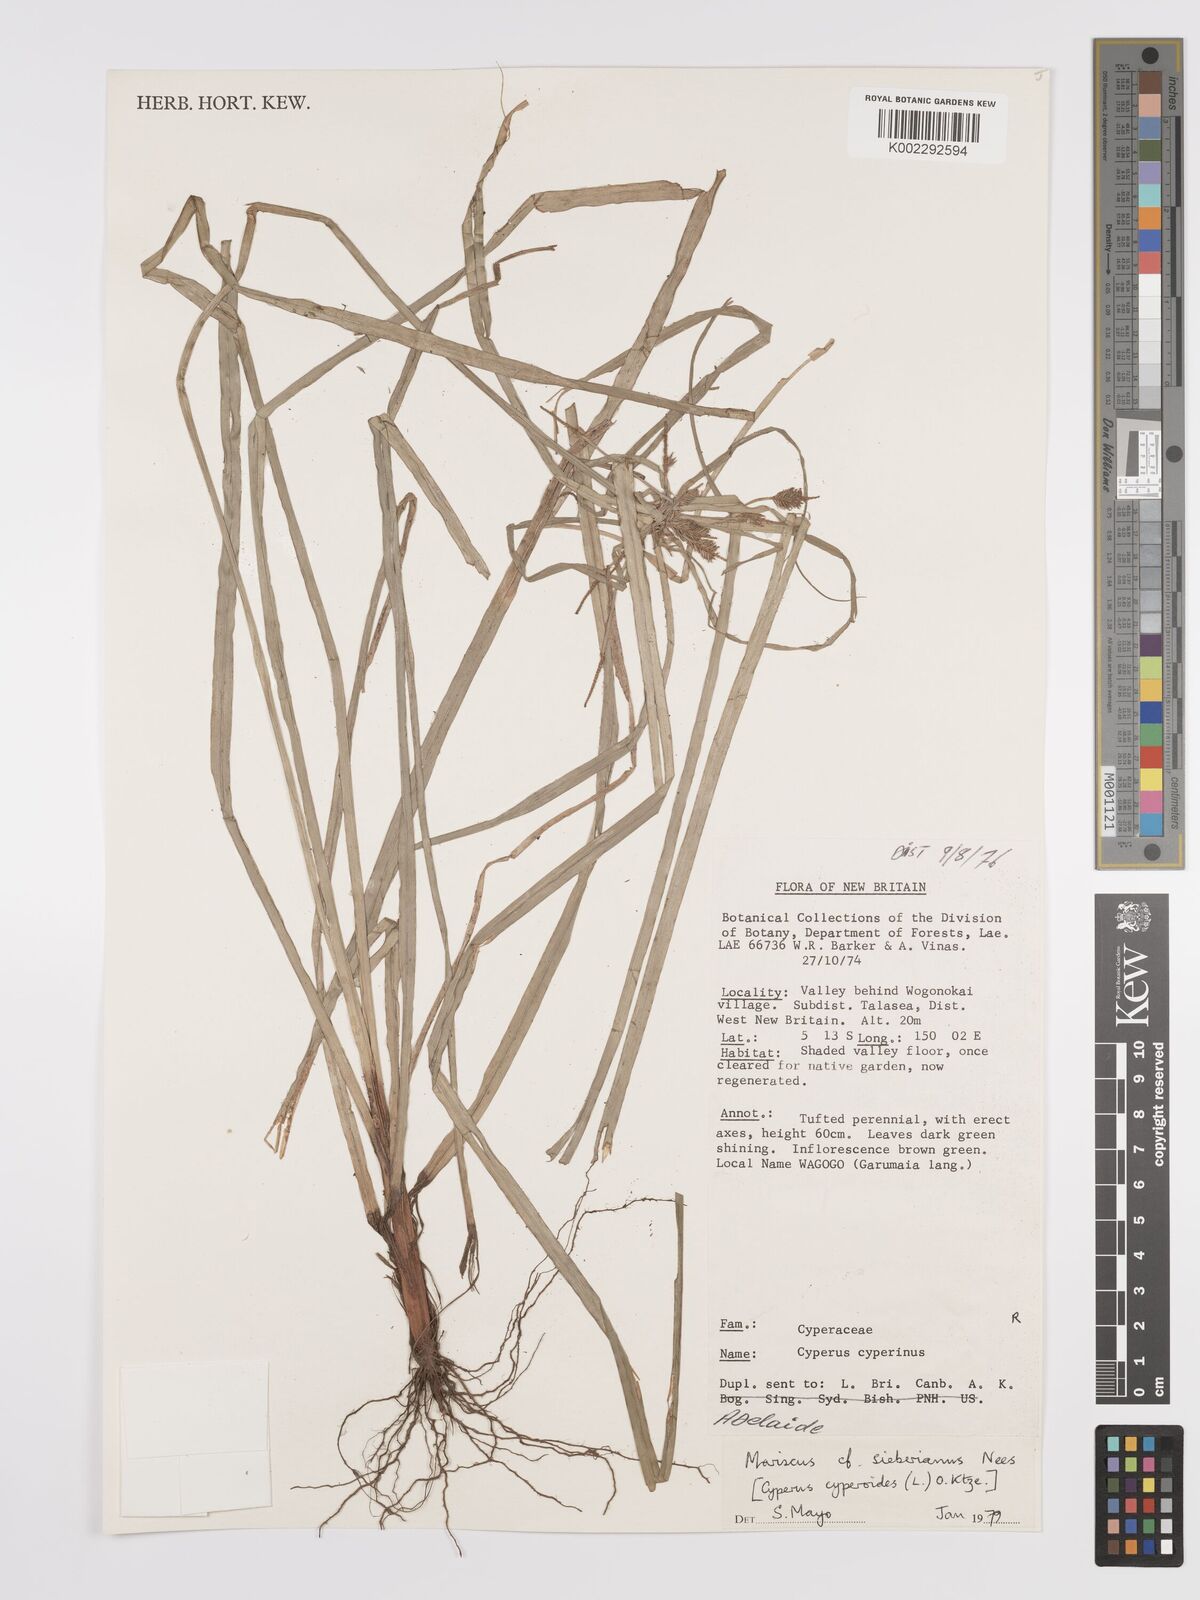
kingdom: Plantae
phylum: Tracheophyta
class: Liliopsida
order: Poales
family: Cyperaceae
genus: Cyperus
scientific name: Cyperus cyperoides
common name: Pacific island flat sedge
